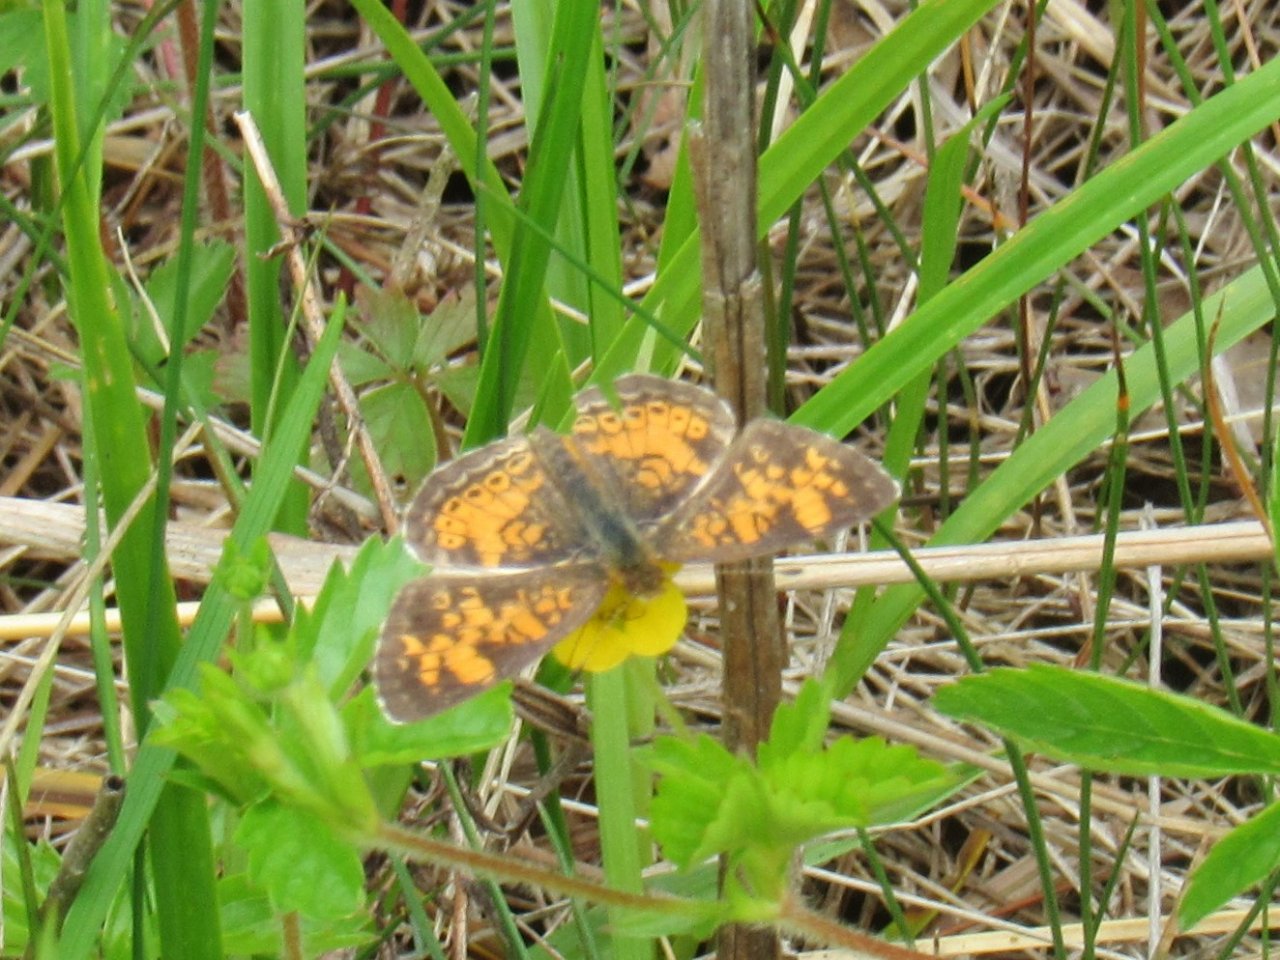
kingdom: Animalia
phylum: Arthropoda
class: Insecta
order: Lepidoptera
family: Nymphalidae
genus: Phyciodes
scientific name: Phyciodes tharos
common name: Pearl Crescent
